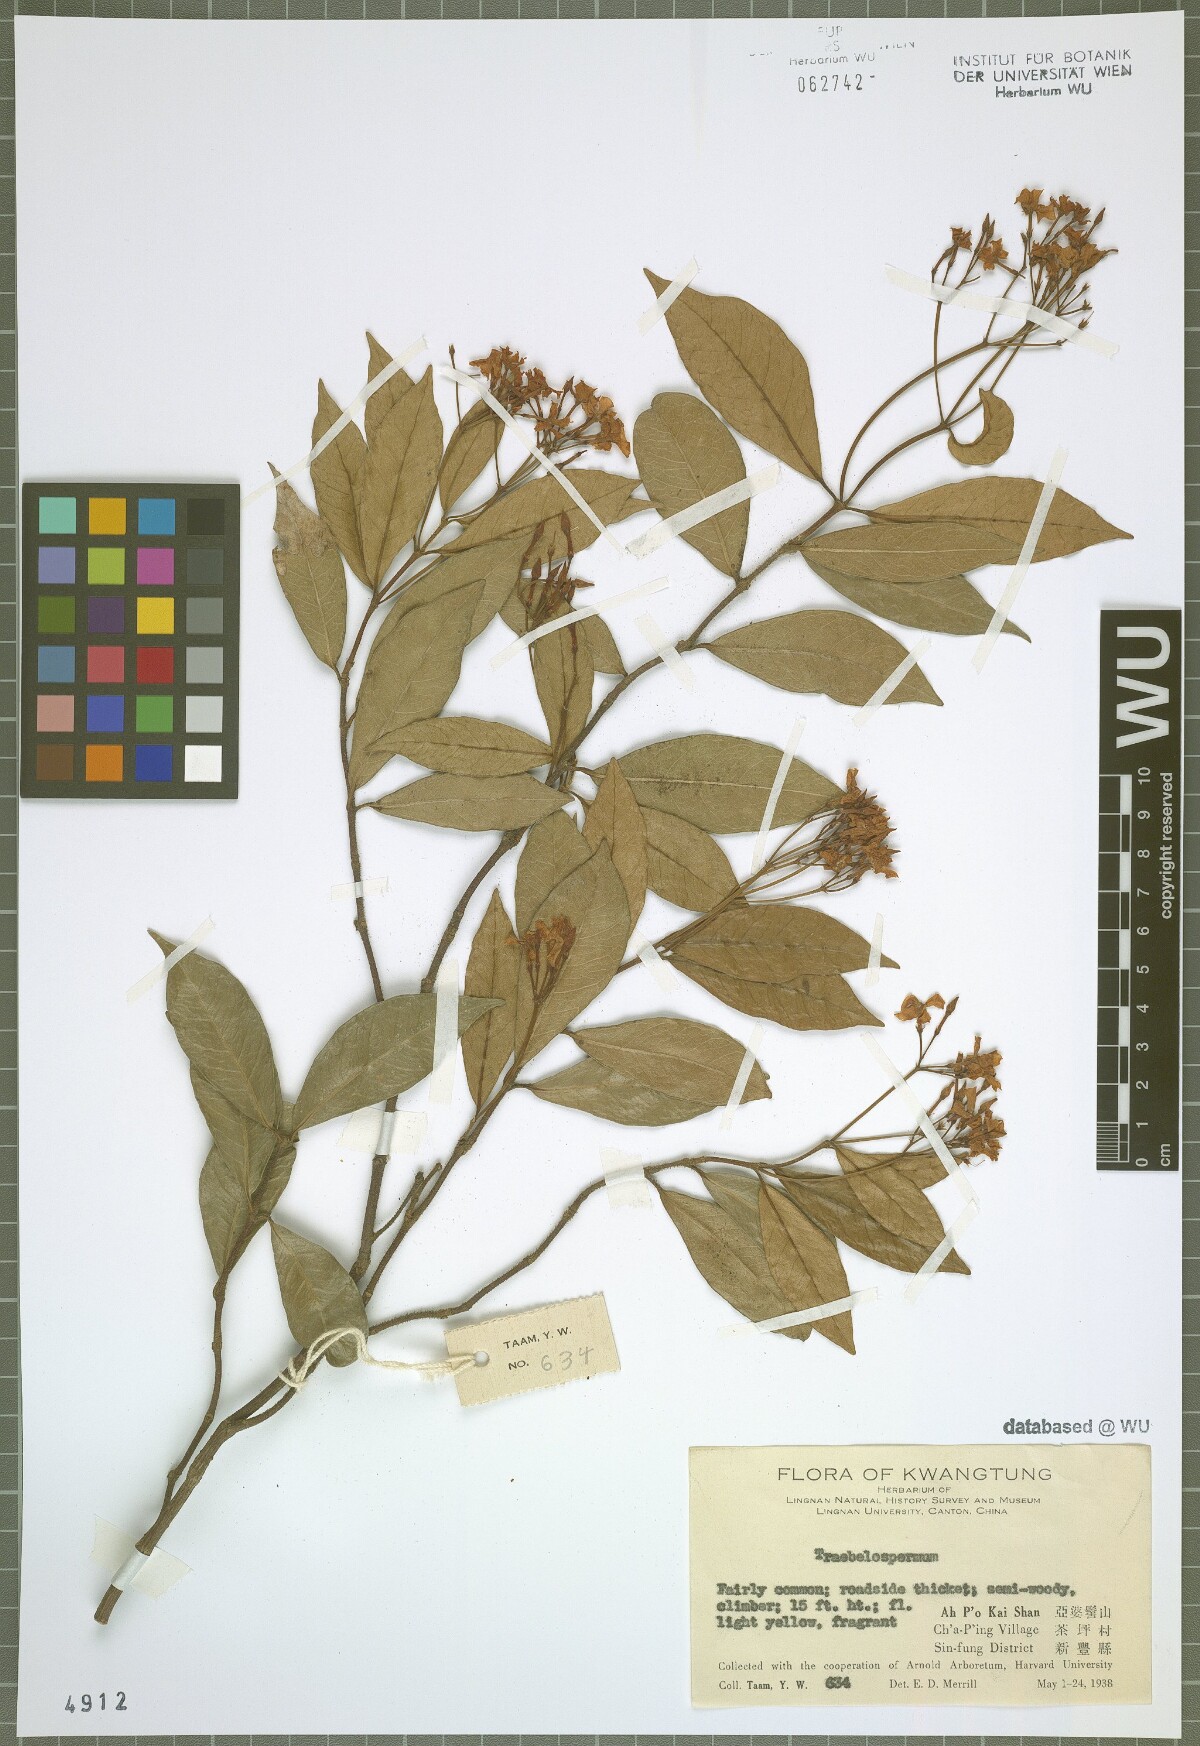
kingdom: Plantae
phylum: Tracheophyta
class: Magnoliopsida
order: Gentianales
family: Apocynaceae
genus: Trachelospermum
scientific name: Trachelospermum
